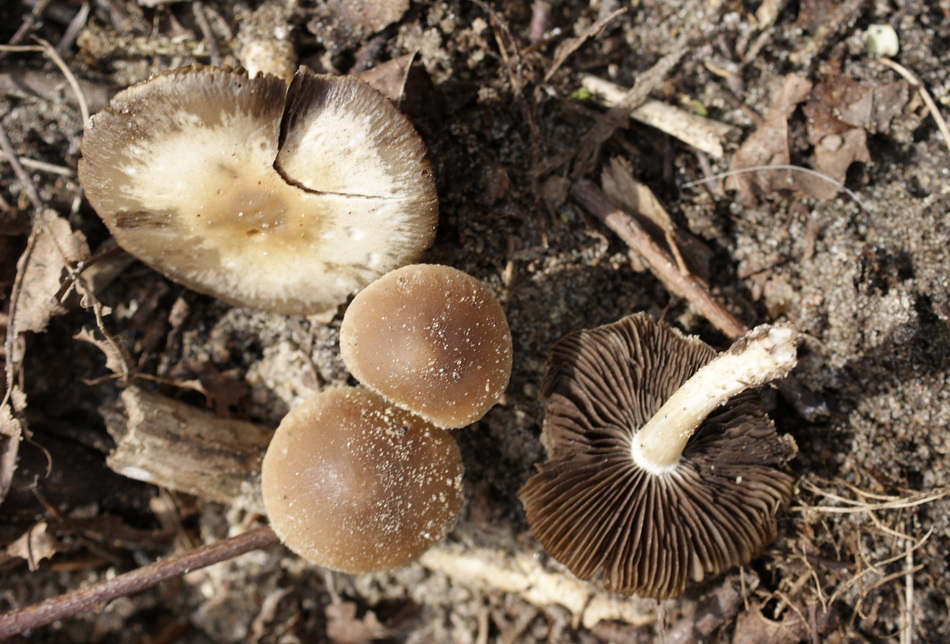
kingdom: Fungi
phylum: Basidiomycota
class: Agaricomycetes
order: Agaricales
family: Psathyrellaceae
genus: Psathyrella
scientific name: Psathyrella spadiceogrisea
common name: gråbrun mørkhat
